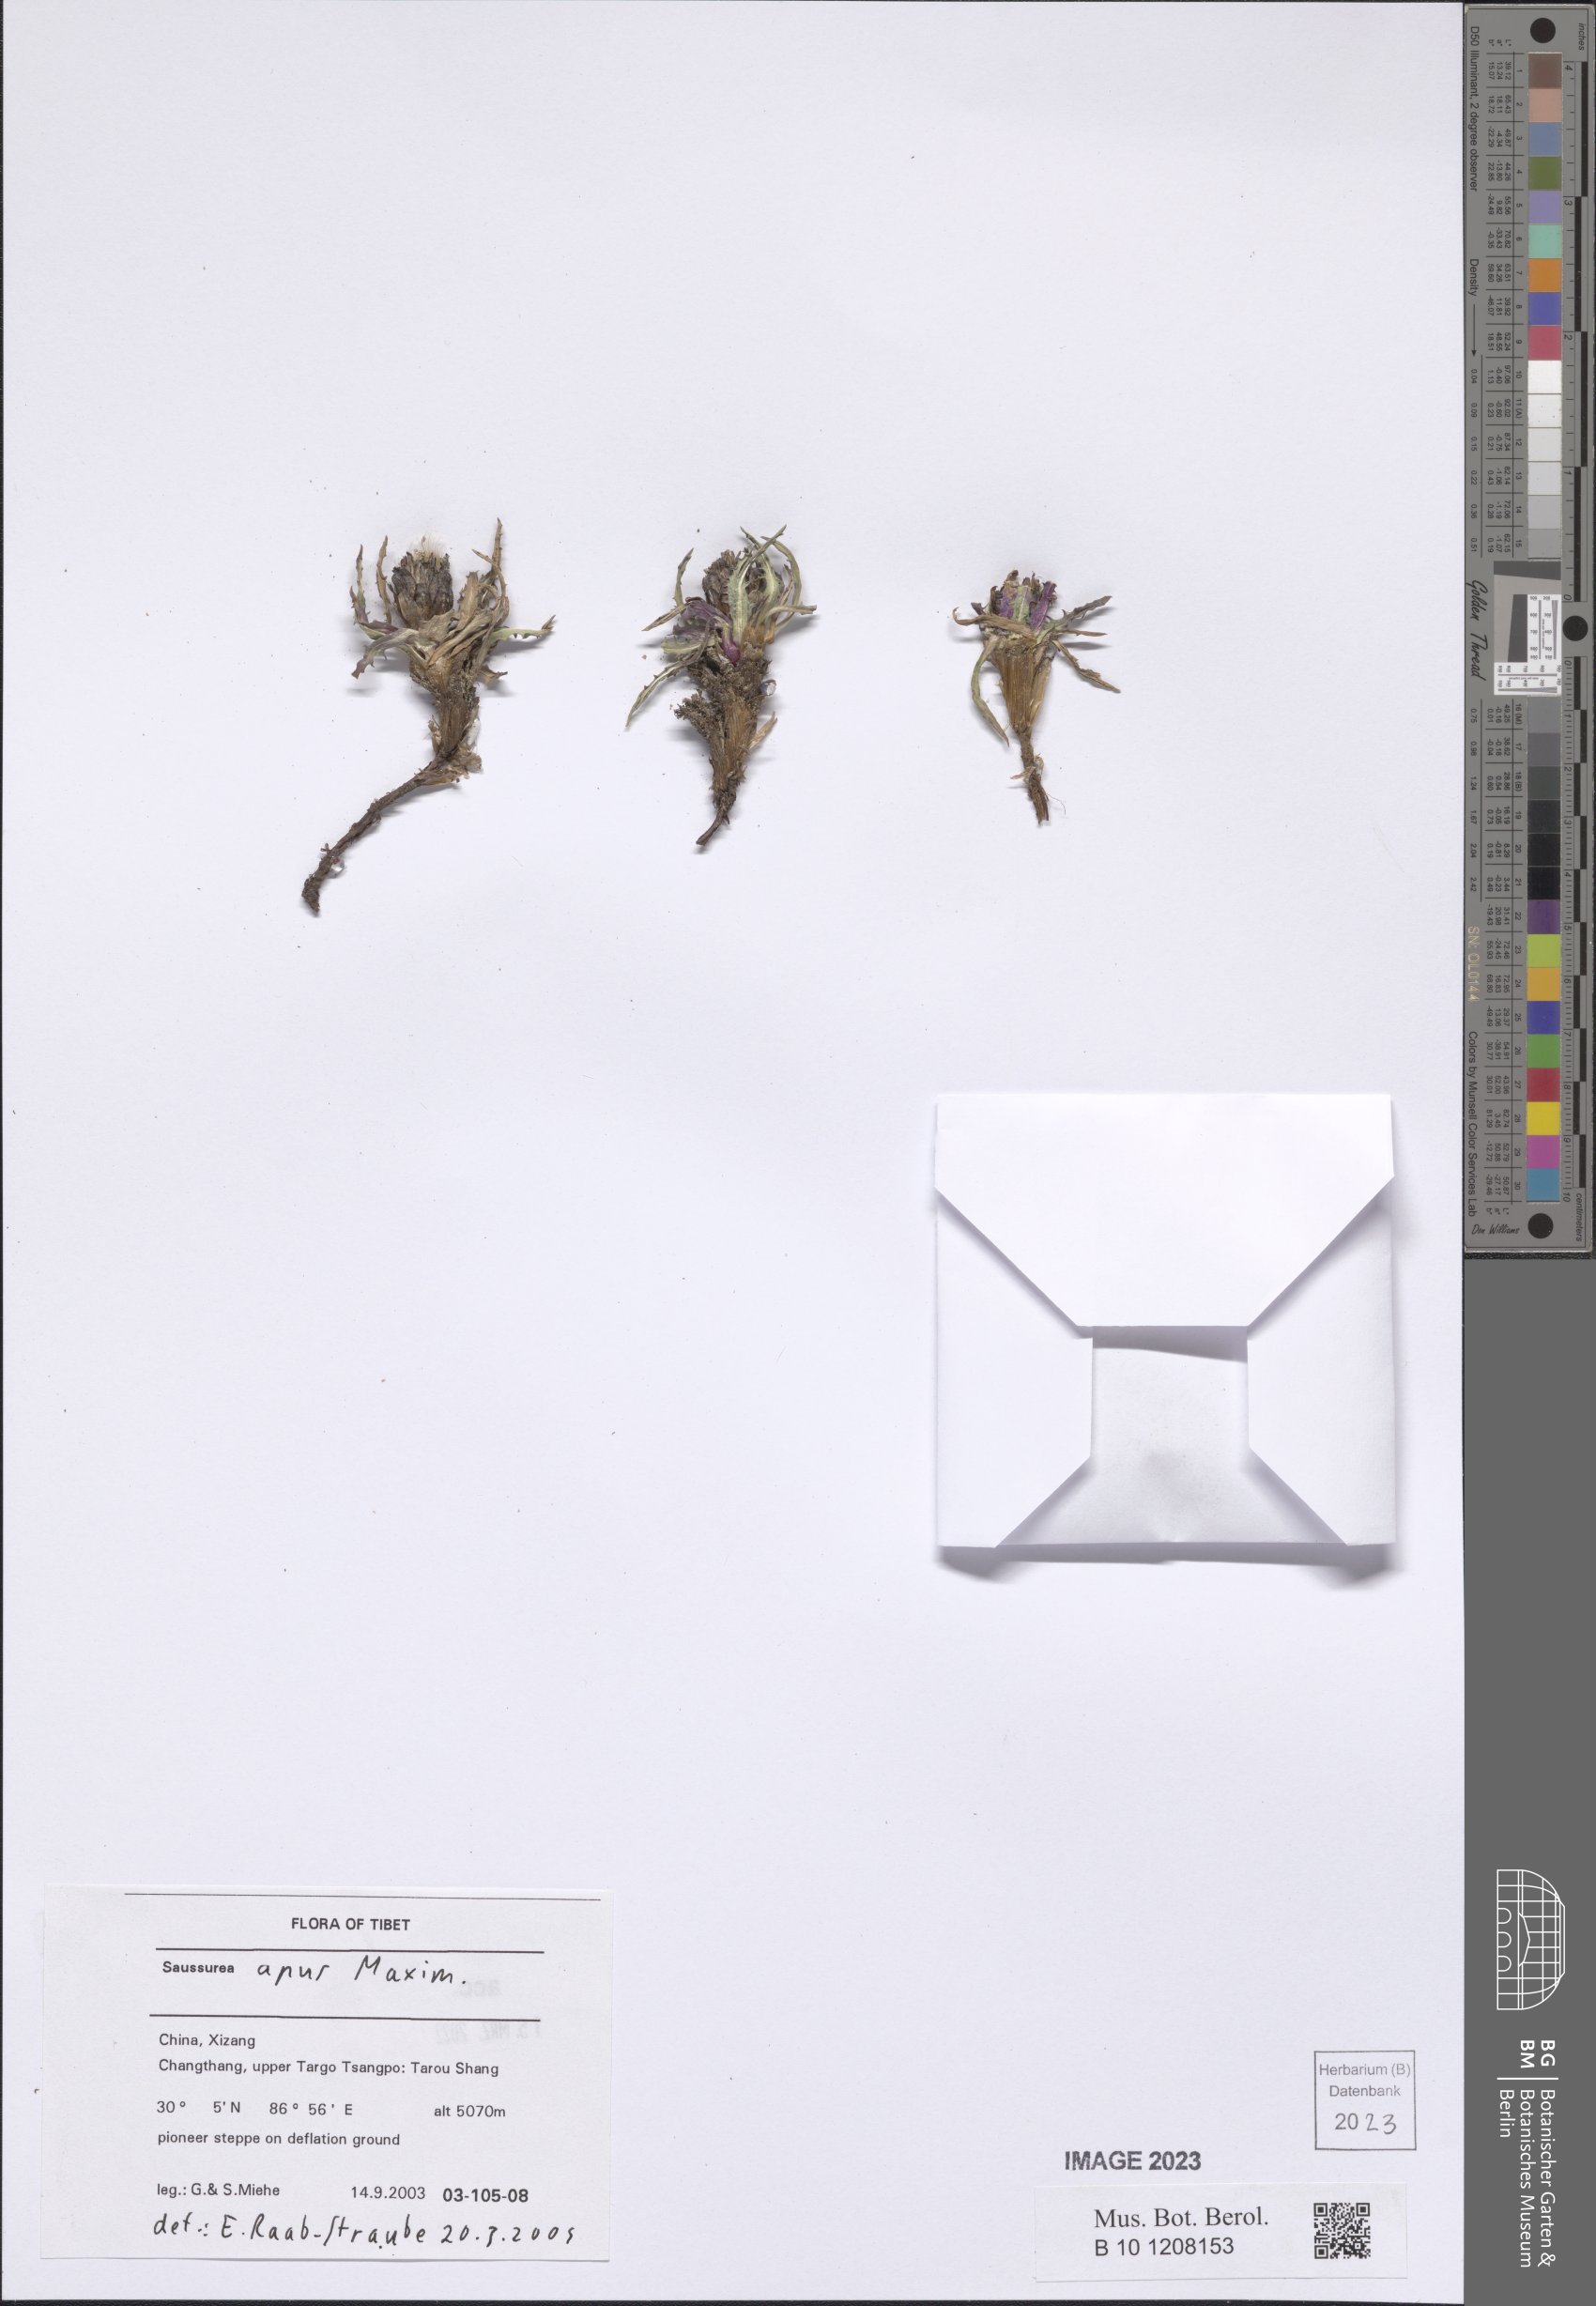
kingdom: Plantae
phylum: Tracheophyta
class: Magnoliopsida
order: Asterales
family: Asteraceae
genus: Saussurea
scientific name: Saussurea apus
